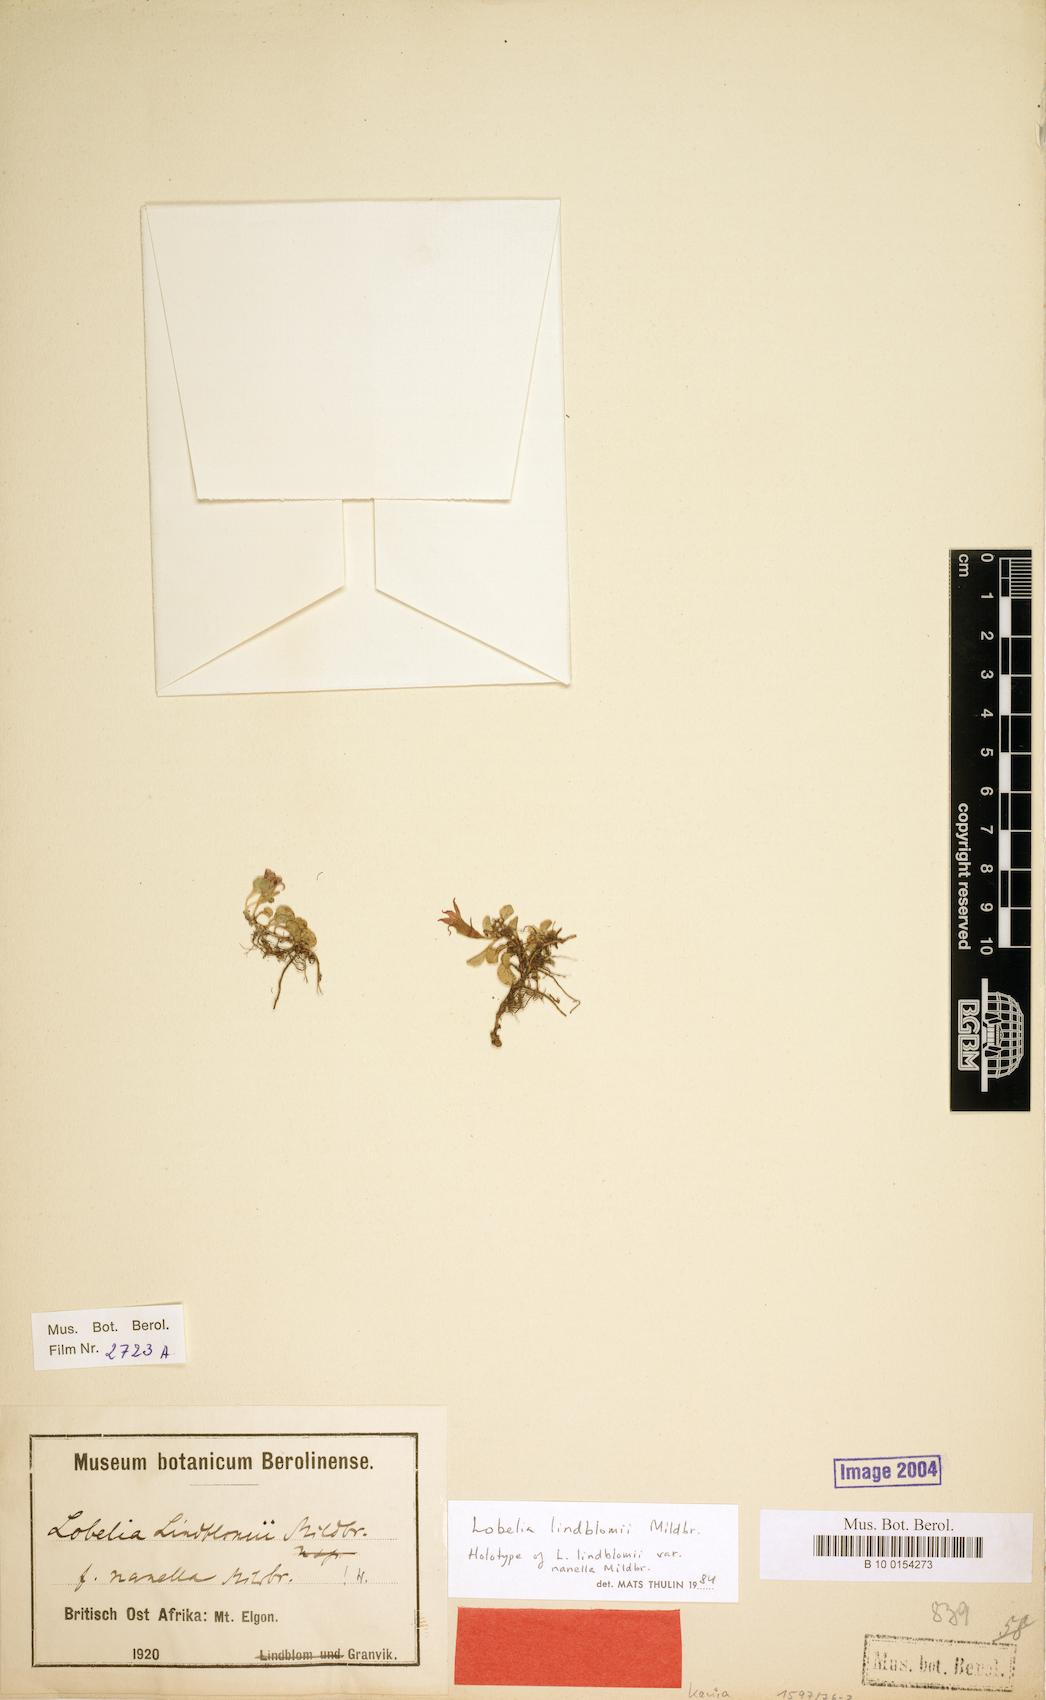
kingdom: Plantae
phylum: Tracheophyta
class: Magnoliopsida
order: Asterales
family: Campanulaceae
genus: Lobelia
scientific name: Lobelia lindblomii
